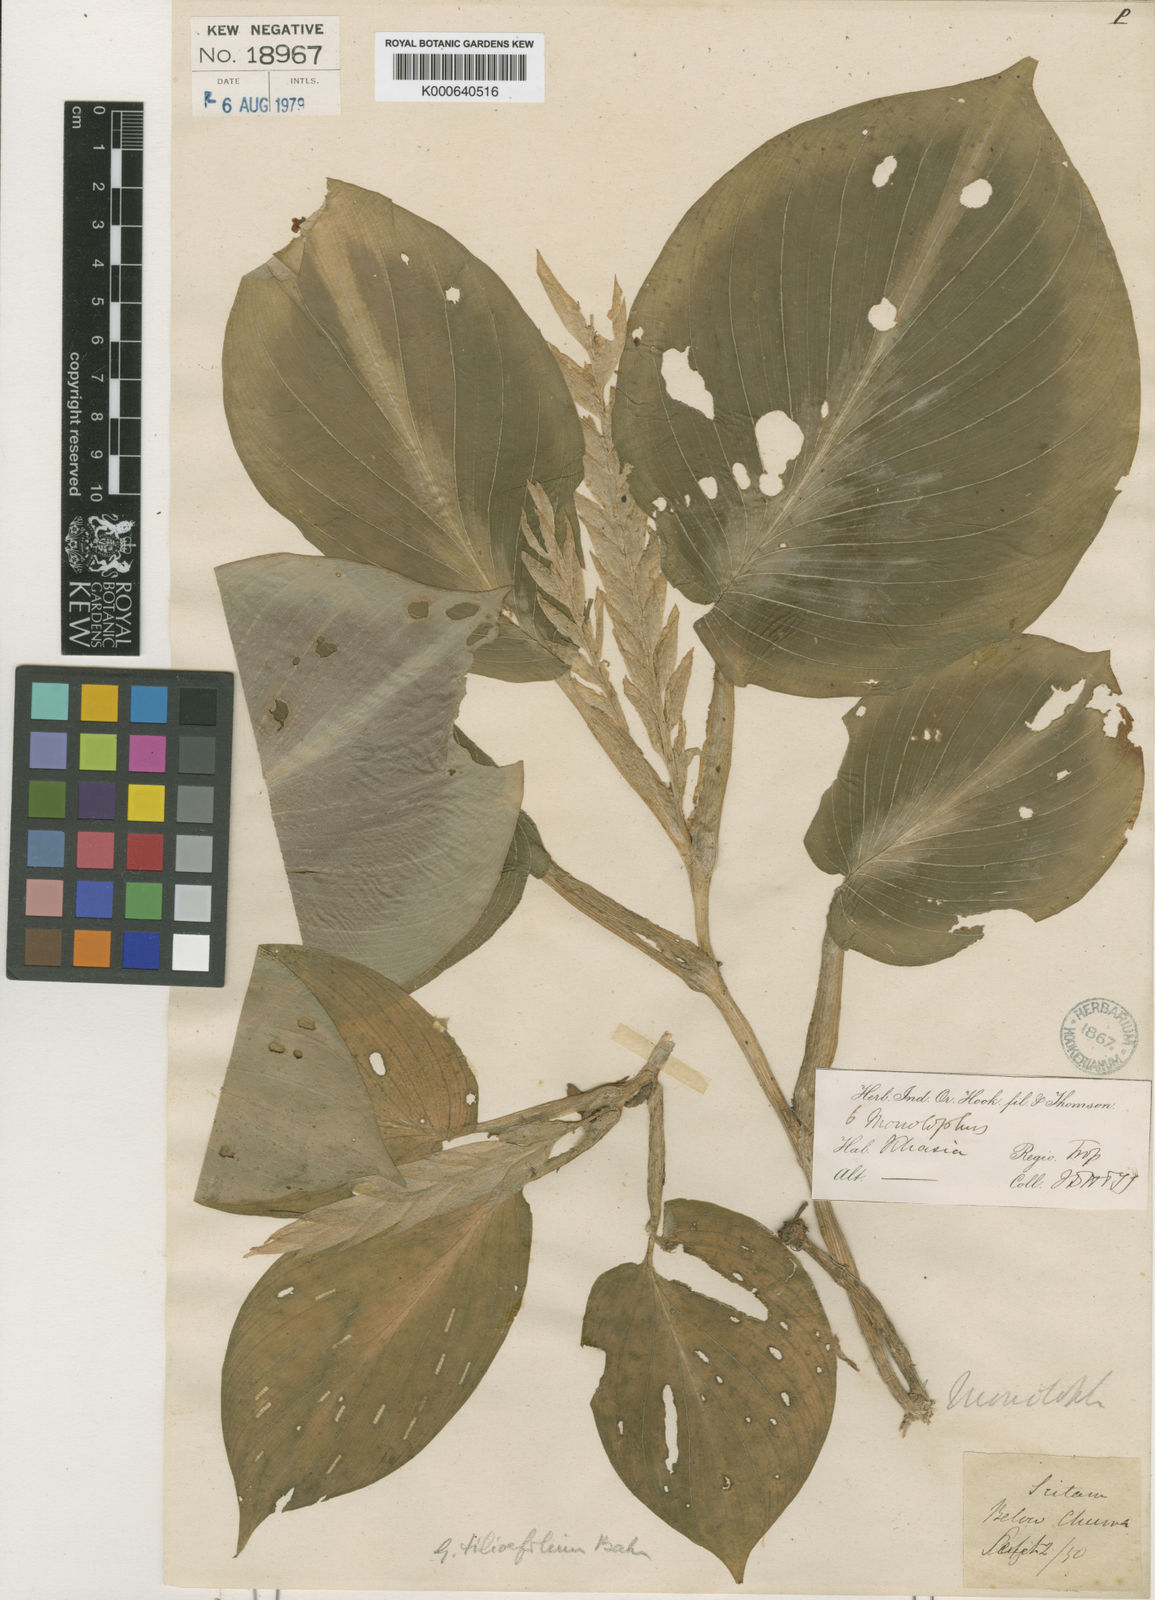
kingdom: Plantae
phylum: Tracheophyta
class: Liliopsida
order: Zingiberales
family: Zingiberaceae
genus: Boesenbergia
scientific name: Boesenbergia tiliifolia
